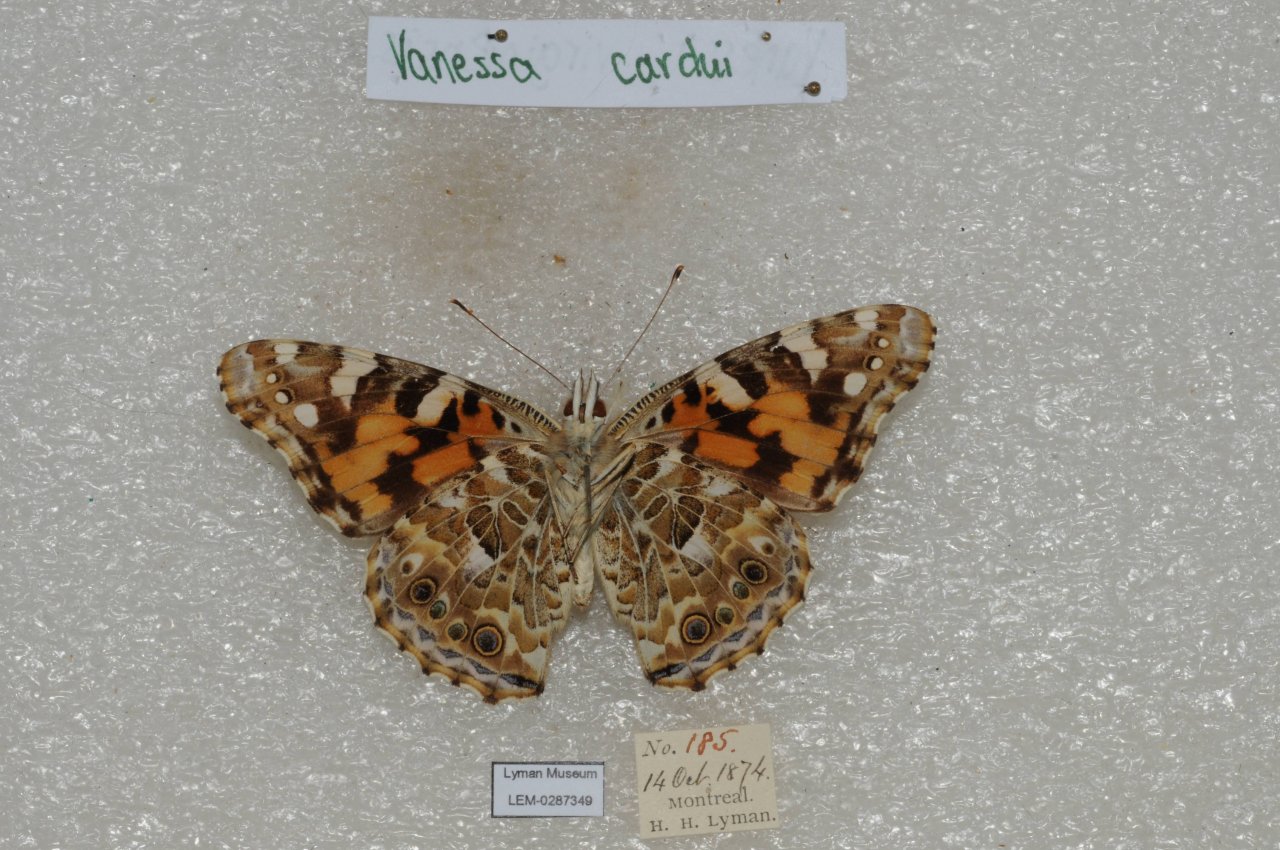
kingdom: Animalia
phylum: Arthropoda
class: Insecta
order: Lepidoptera
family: Nymphalidae
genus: Vanessa
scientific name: Vanessa cardui
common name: Painted Lady
